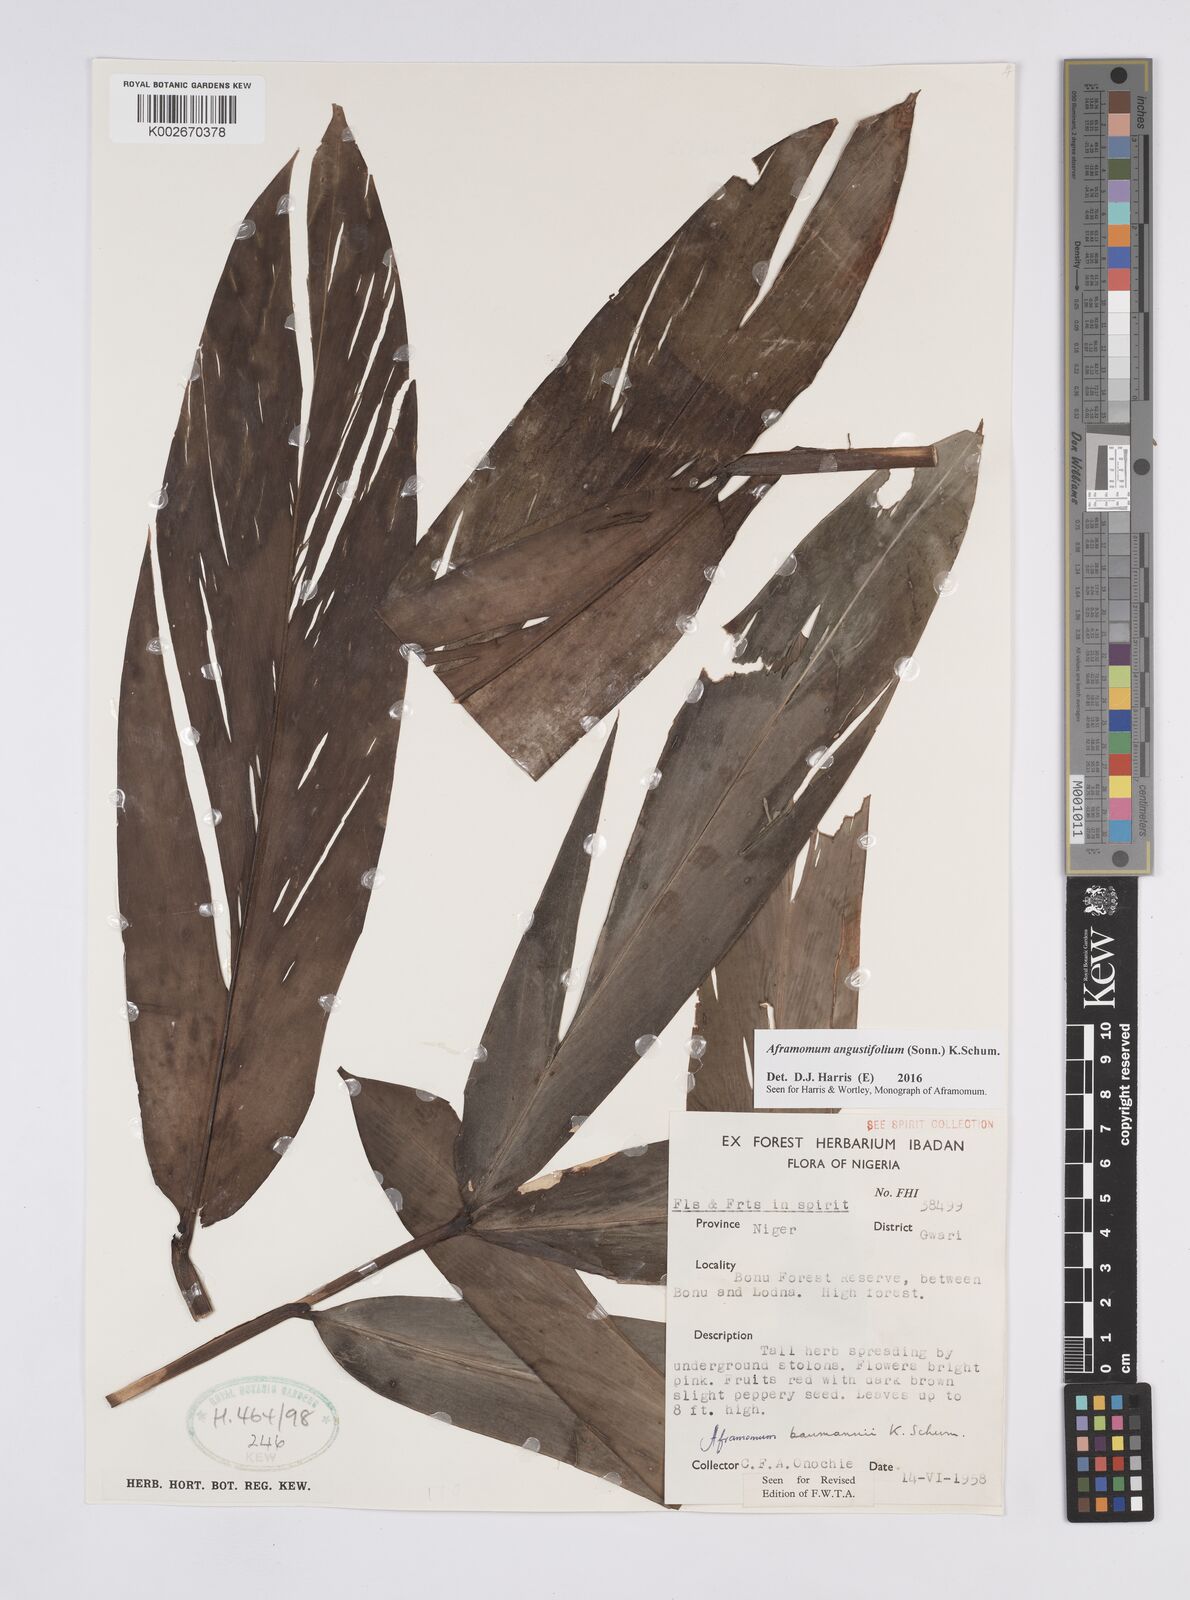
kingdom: Plantae
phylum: Tracheophyta
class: Liliopsida
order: Zingiberales
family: Zingiberaceae
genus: Aframomum
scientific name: Aframomum angustifolium
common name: Guinea grains
